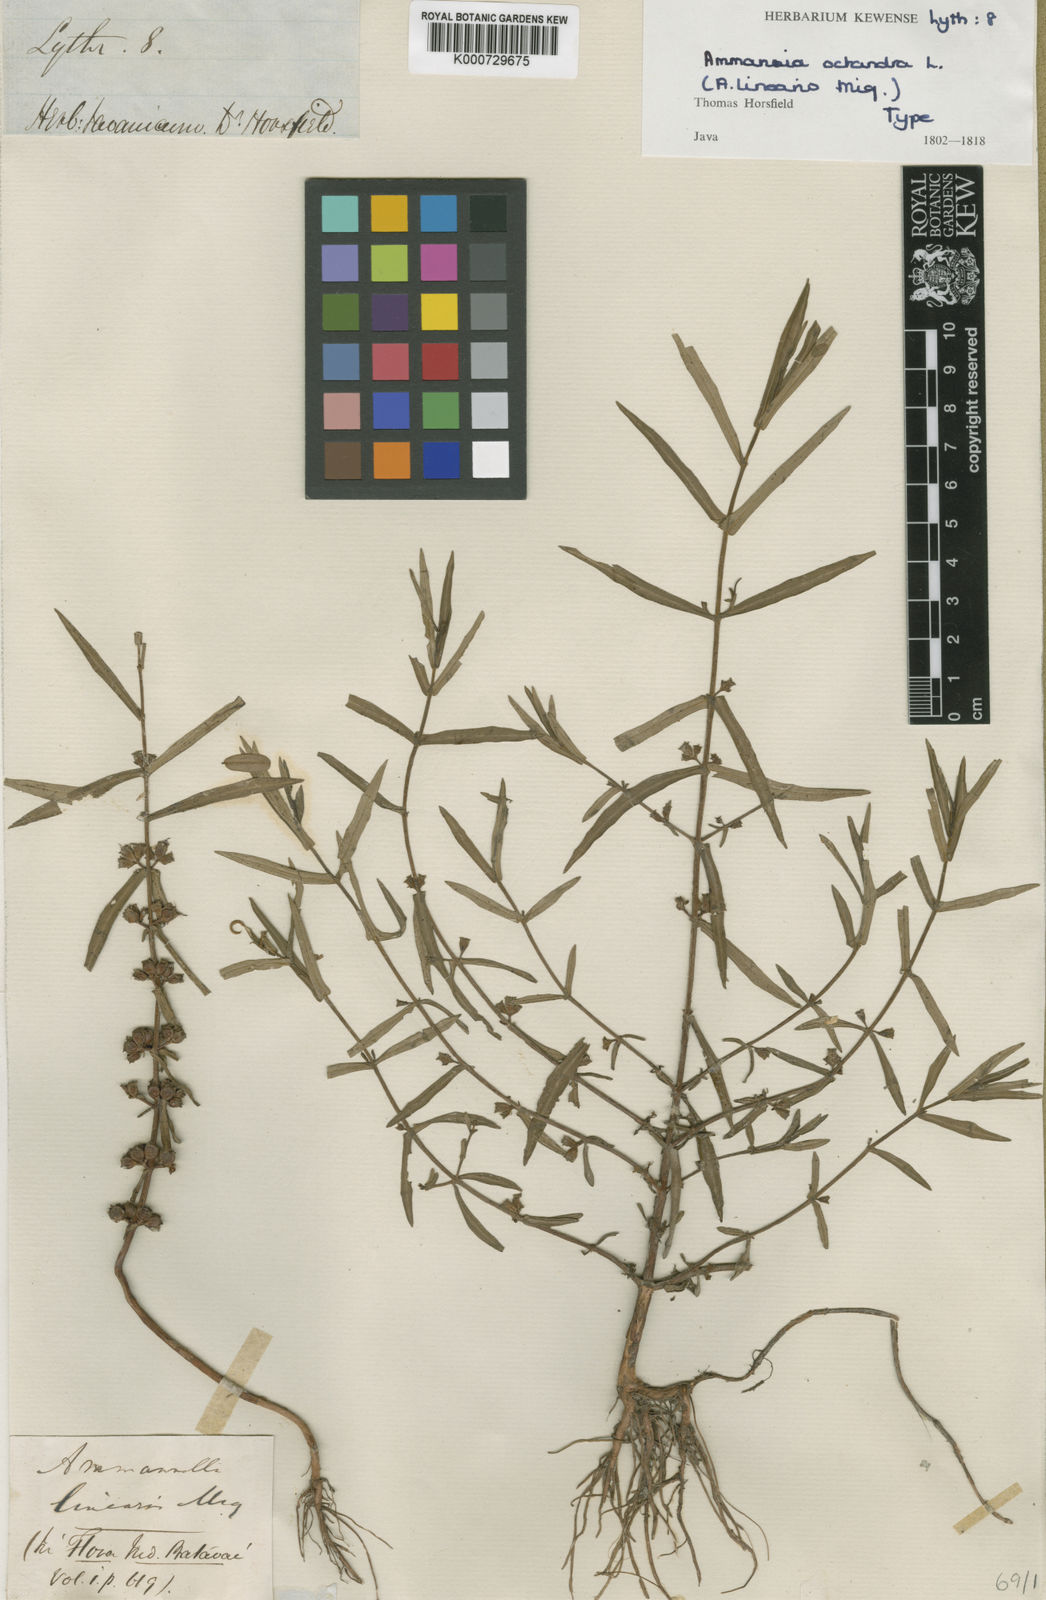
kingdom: Plantae
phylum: Tracheophyta
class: Magnoliopsida
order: Myrtales
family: Lythraceae
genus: Ammannia
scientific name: Ammannia octandra
